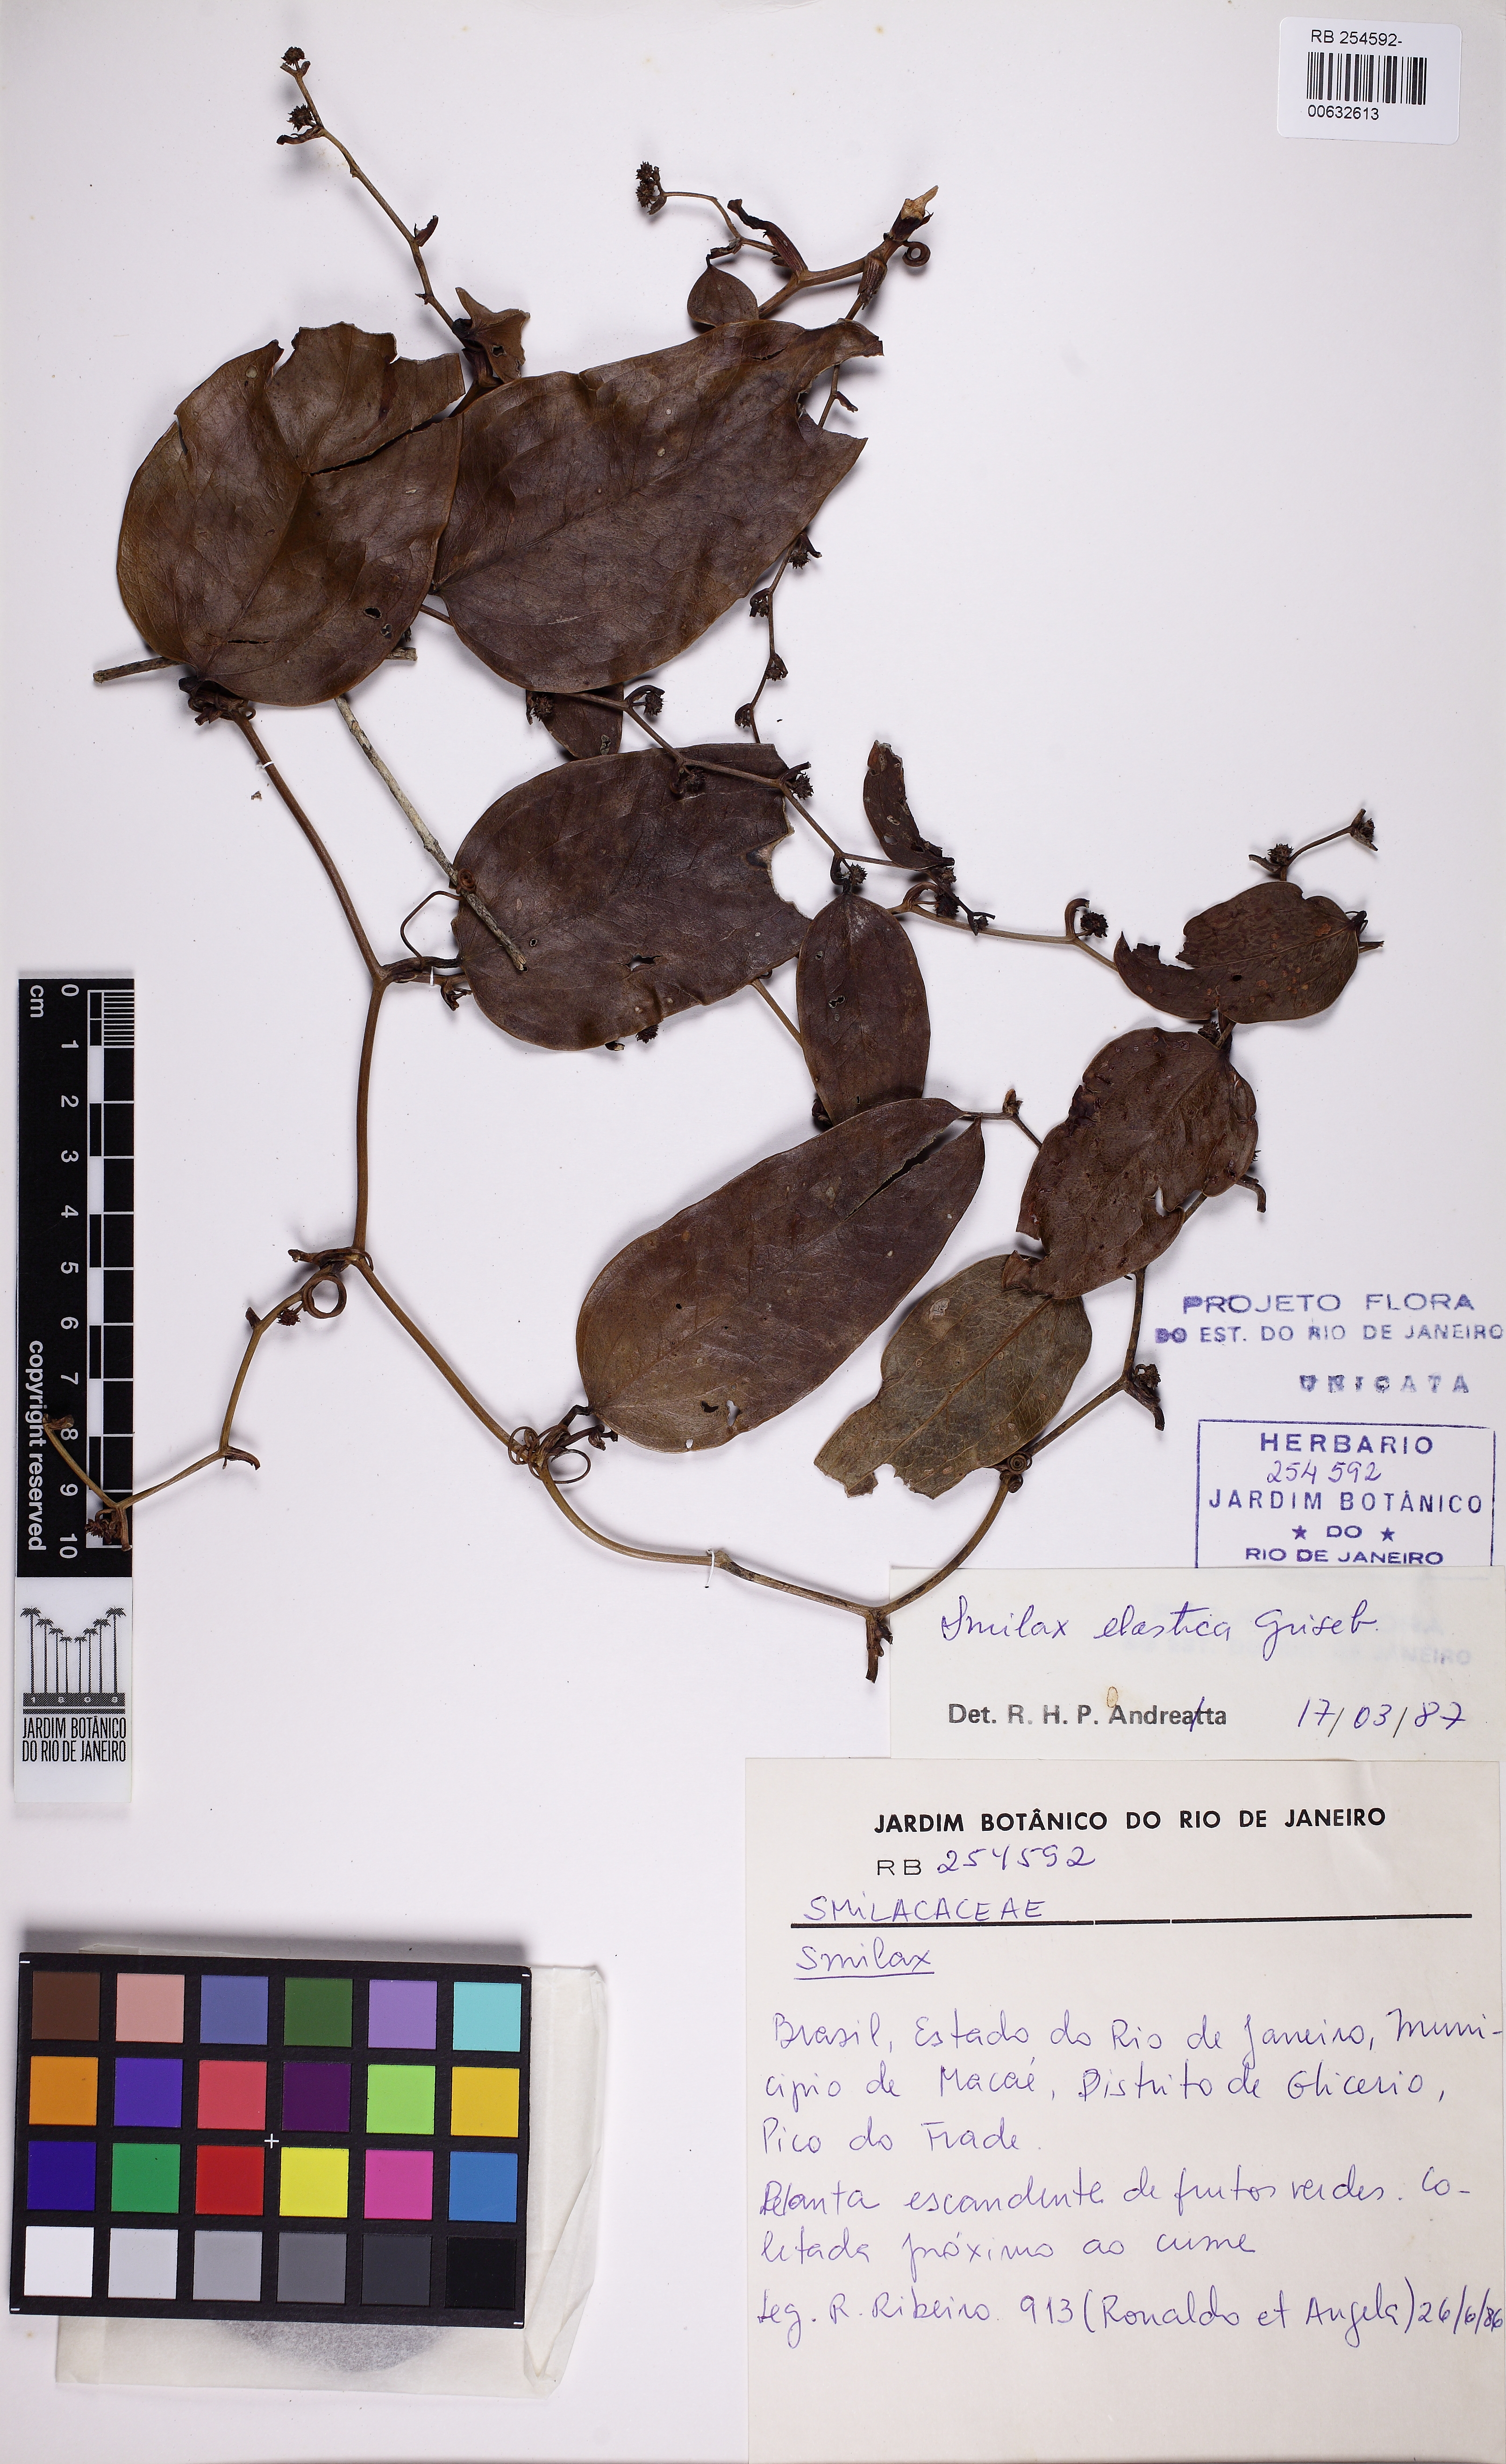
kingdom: Plantae
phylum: Tracheophyta
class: Liliopsida
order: Liliales
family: Smilacaceae
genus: Smilax
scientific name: Smilax elastica
